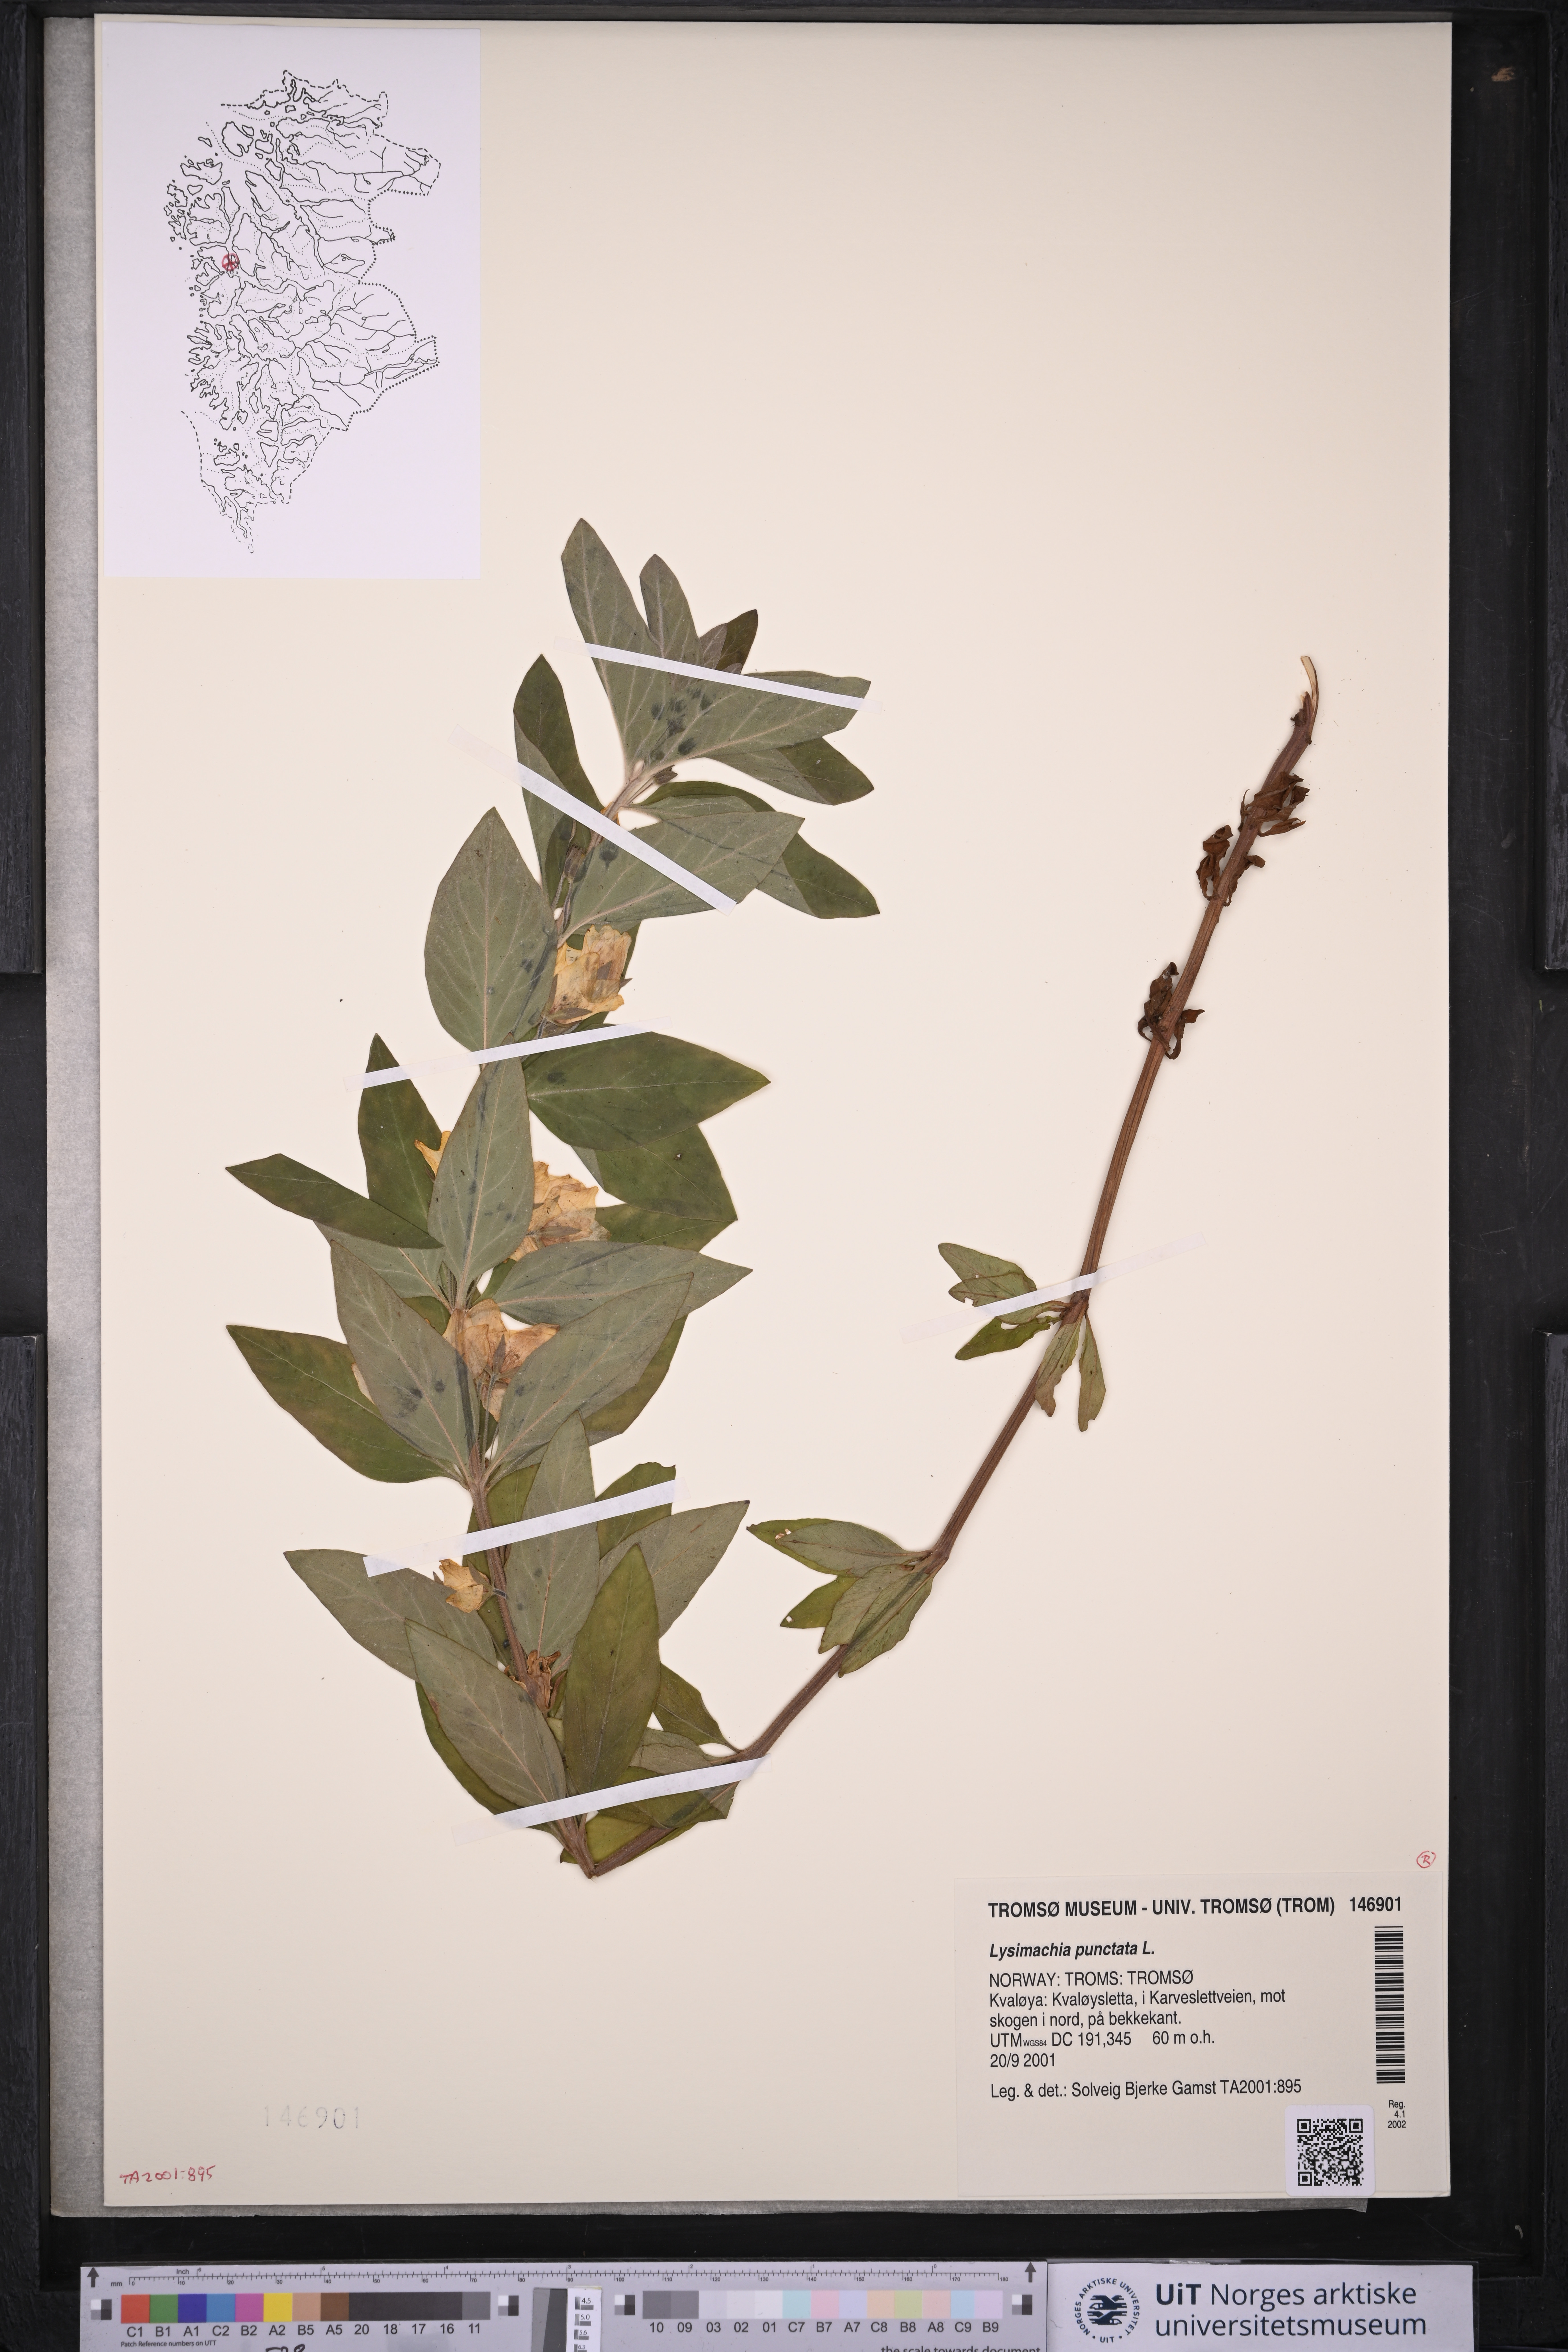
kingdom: Plantae
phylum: Tracheophyta
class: Magnoliopsida
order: Ericales
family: Primulaceae
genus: Lysimachia
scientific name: Lysimachia punctata
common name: Dotted loosestrife
